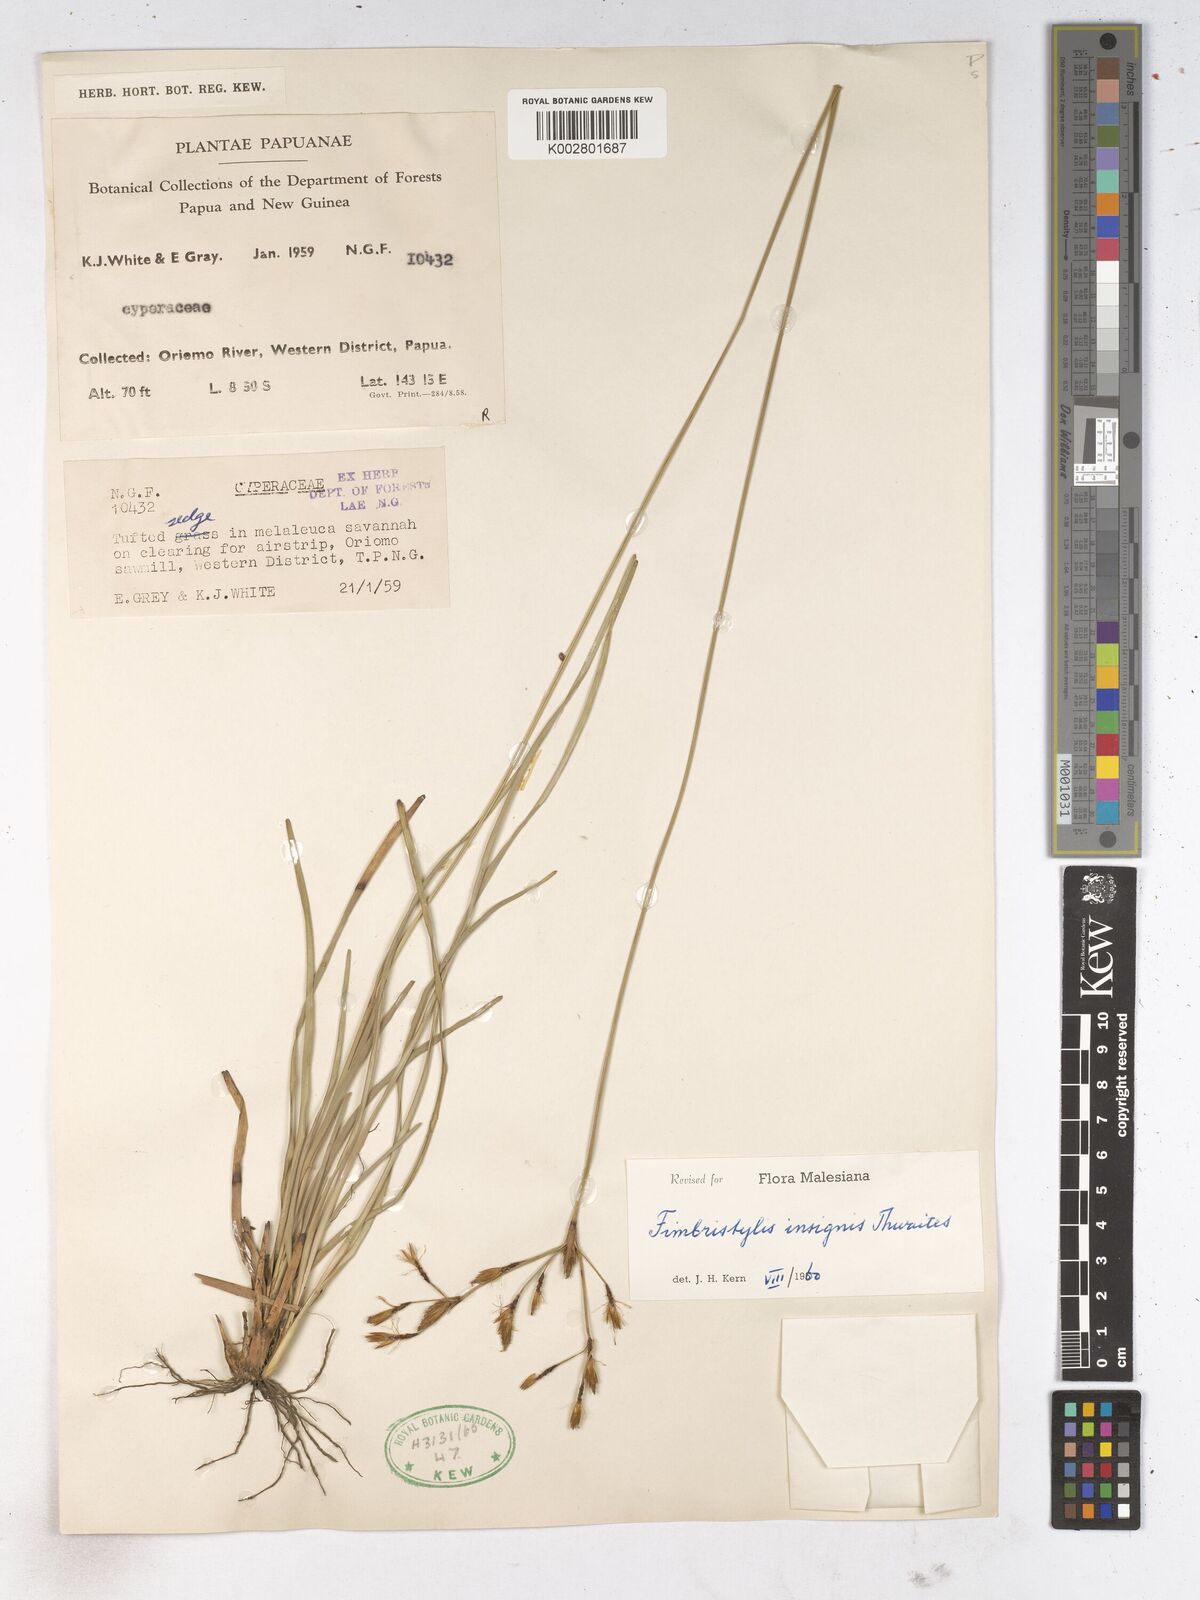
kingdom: Plantae
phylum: Tracheophyta
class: Liliopsida
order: Poales
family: Cyperaceae
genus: Fimbristylis
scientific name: Fimbristylis insignis
